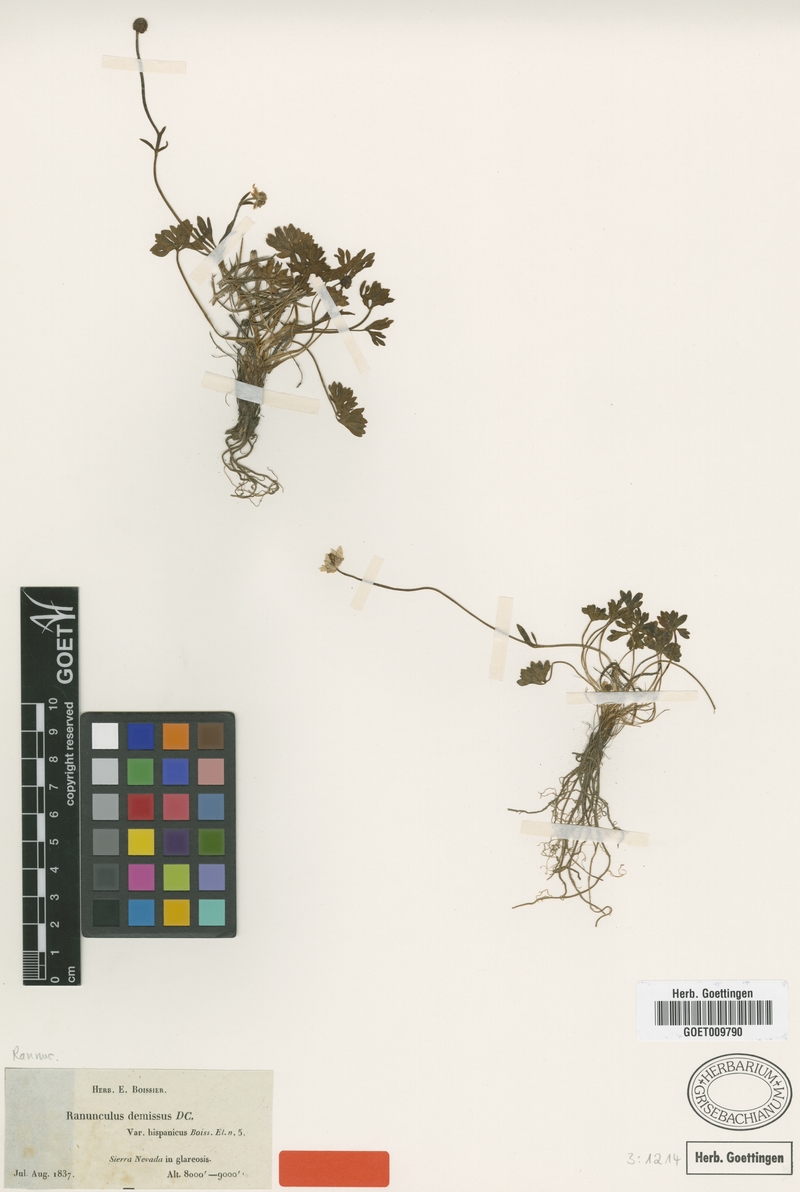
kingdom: Plantae
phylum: Tracheophyta
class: Magnoliopsida
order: Ranunculales
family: Ranunculaceae
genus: Ranunculus
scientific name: Ranunculus demissus
